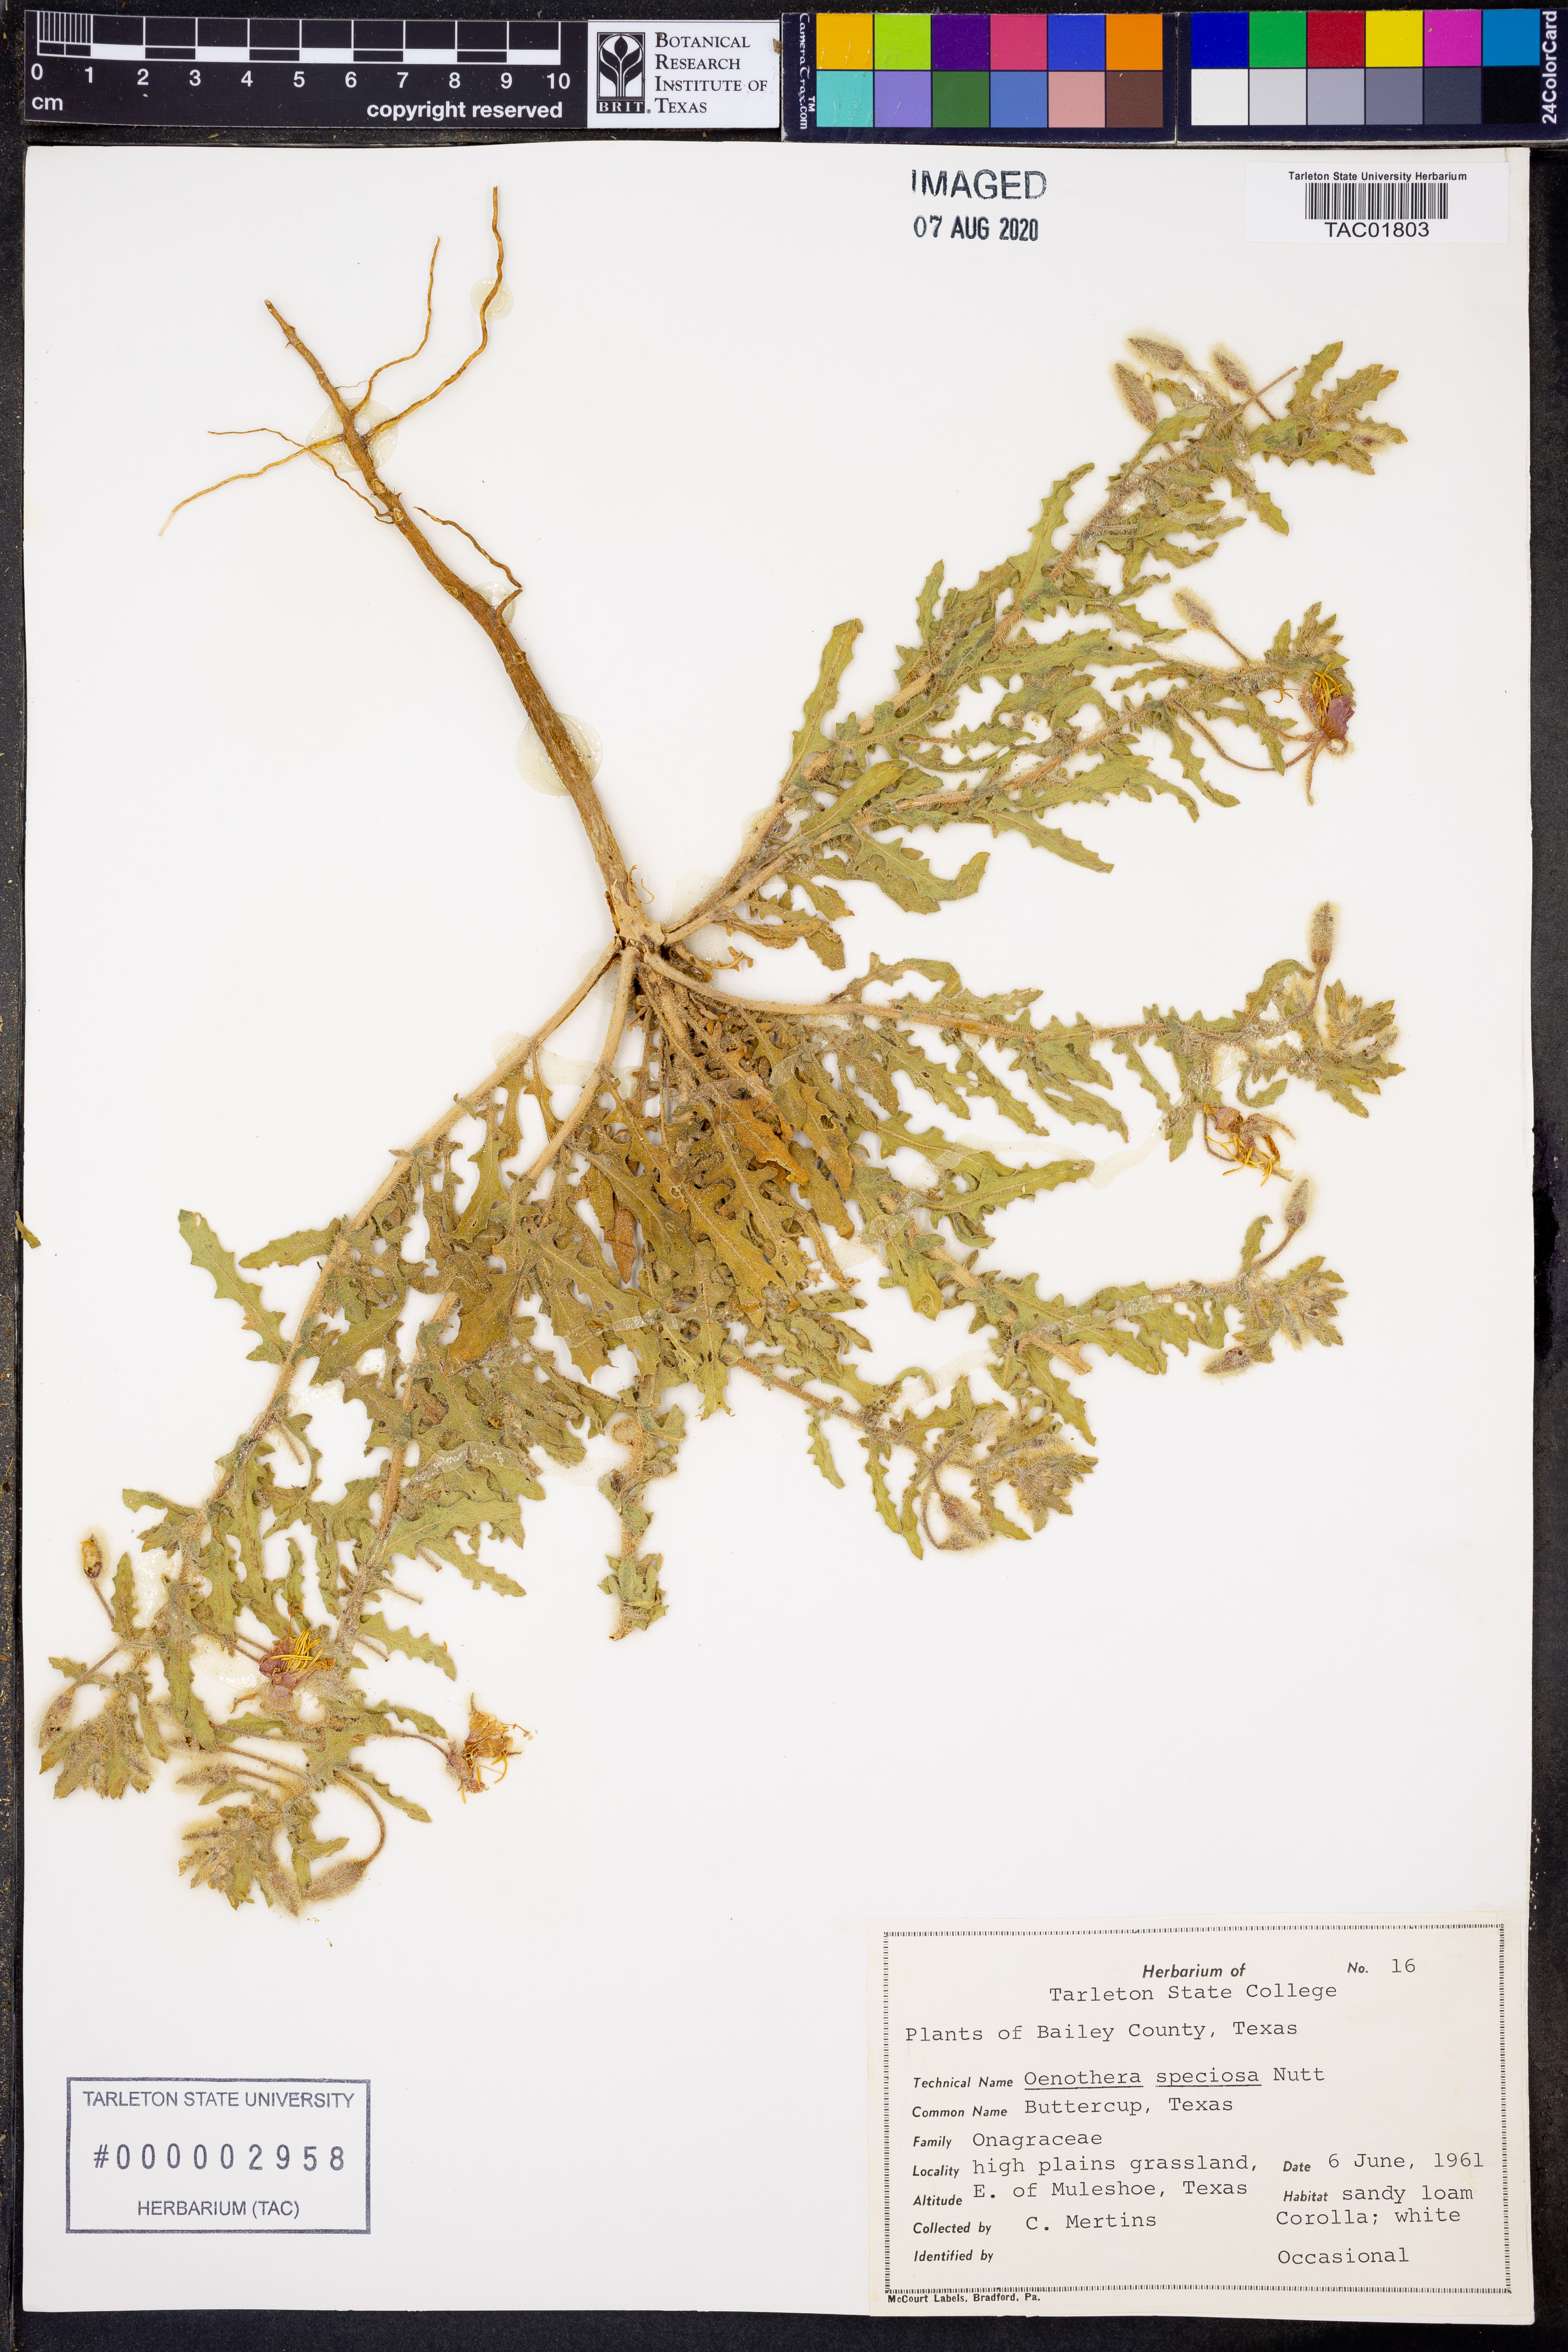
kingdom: Plantae
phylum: Tracheophyta
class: Magnoliopsida
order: Myrtales
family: Onagraceae
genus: Oenothera
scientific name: Oenothera speciosa
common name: White evening-primrose
